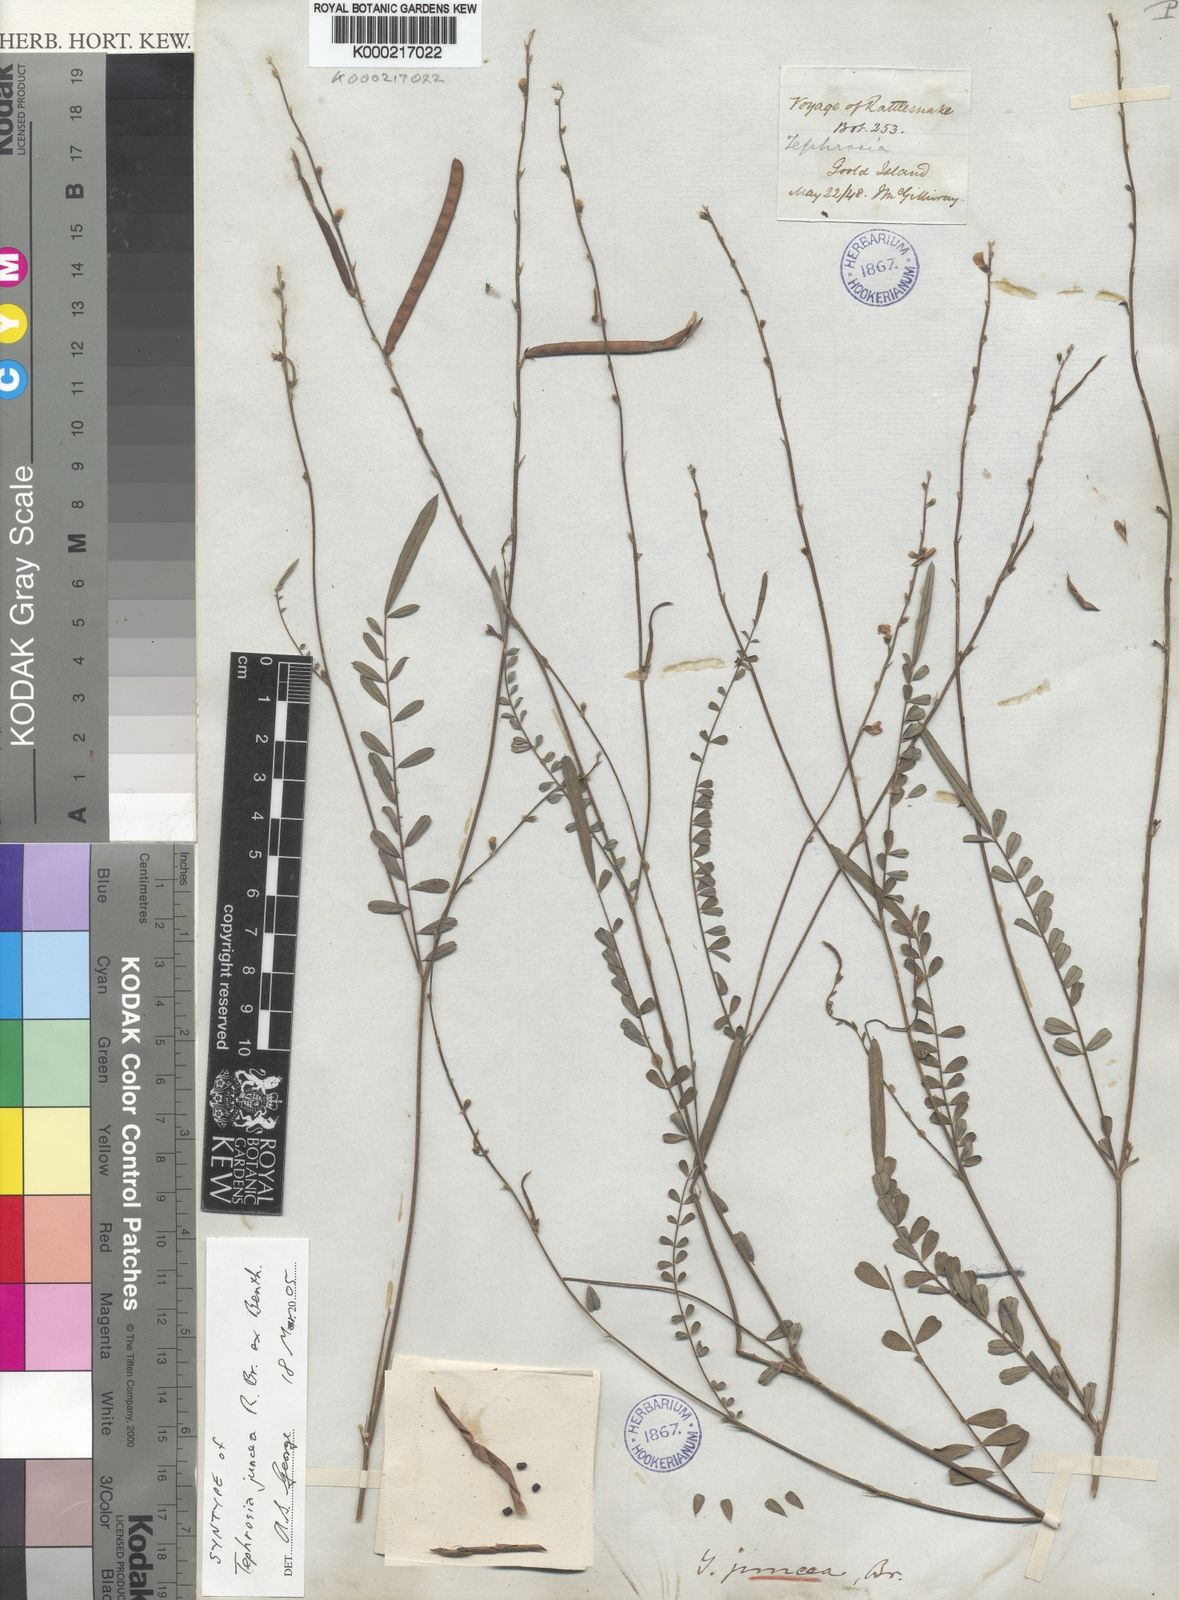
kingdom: Plantae
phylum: Tracheophyta
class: Magnoliopsida
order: Fabales
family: Fabaceae
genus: Tephrosia
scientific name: Tephrosia juncea
